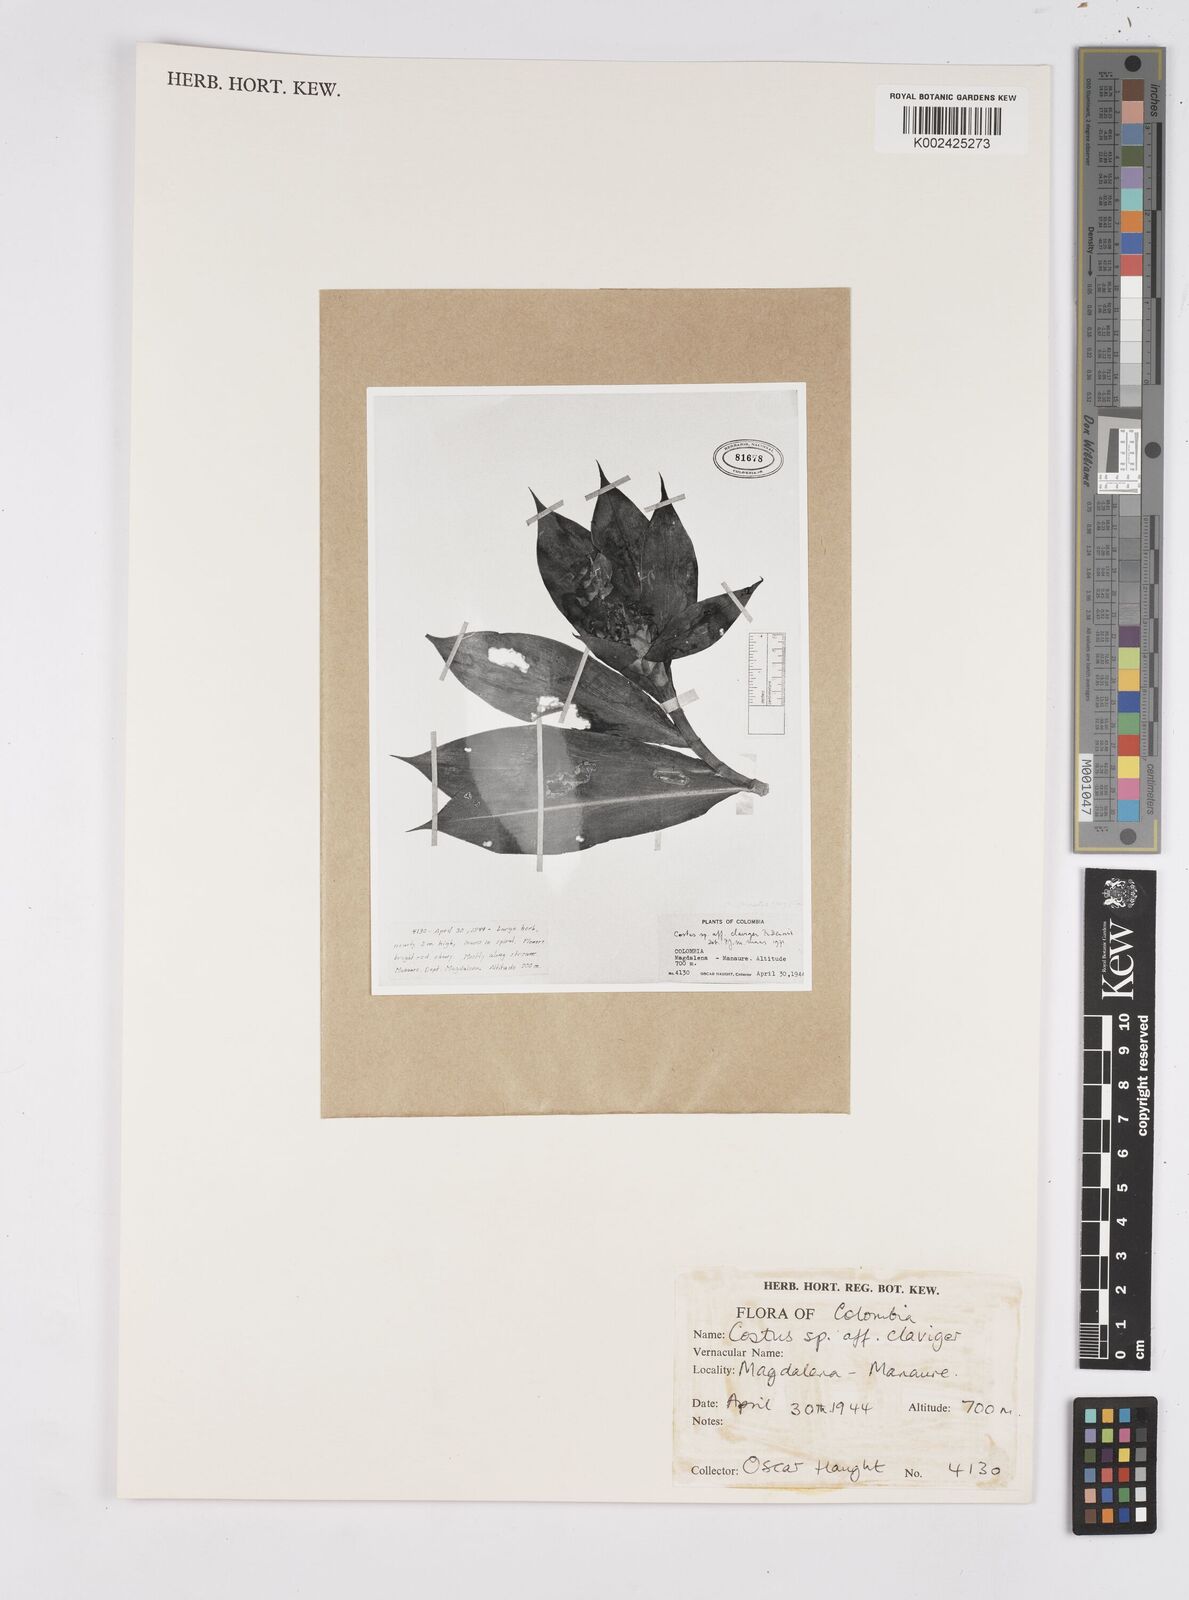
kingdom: Plantae
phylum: Tracheophyta
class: Liliopsida
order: Zingiberales
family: Costaceae
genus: Costus
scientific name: Costus claviger
